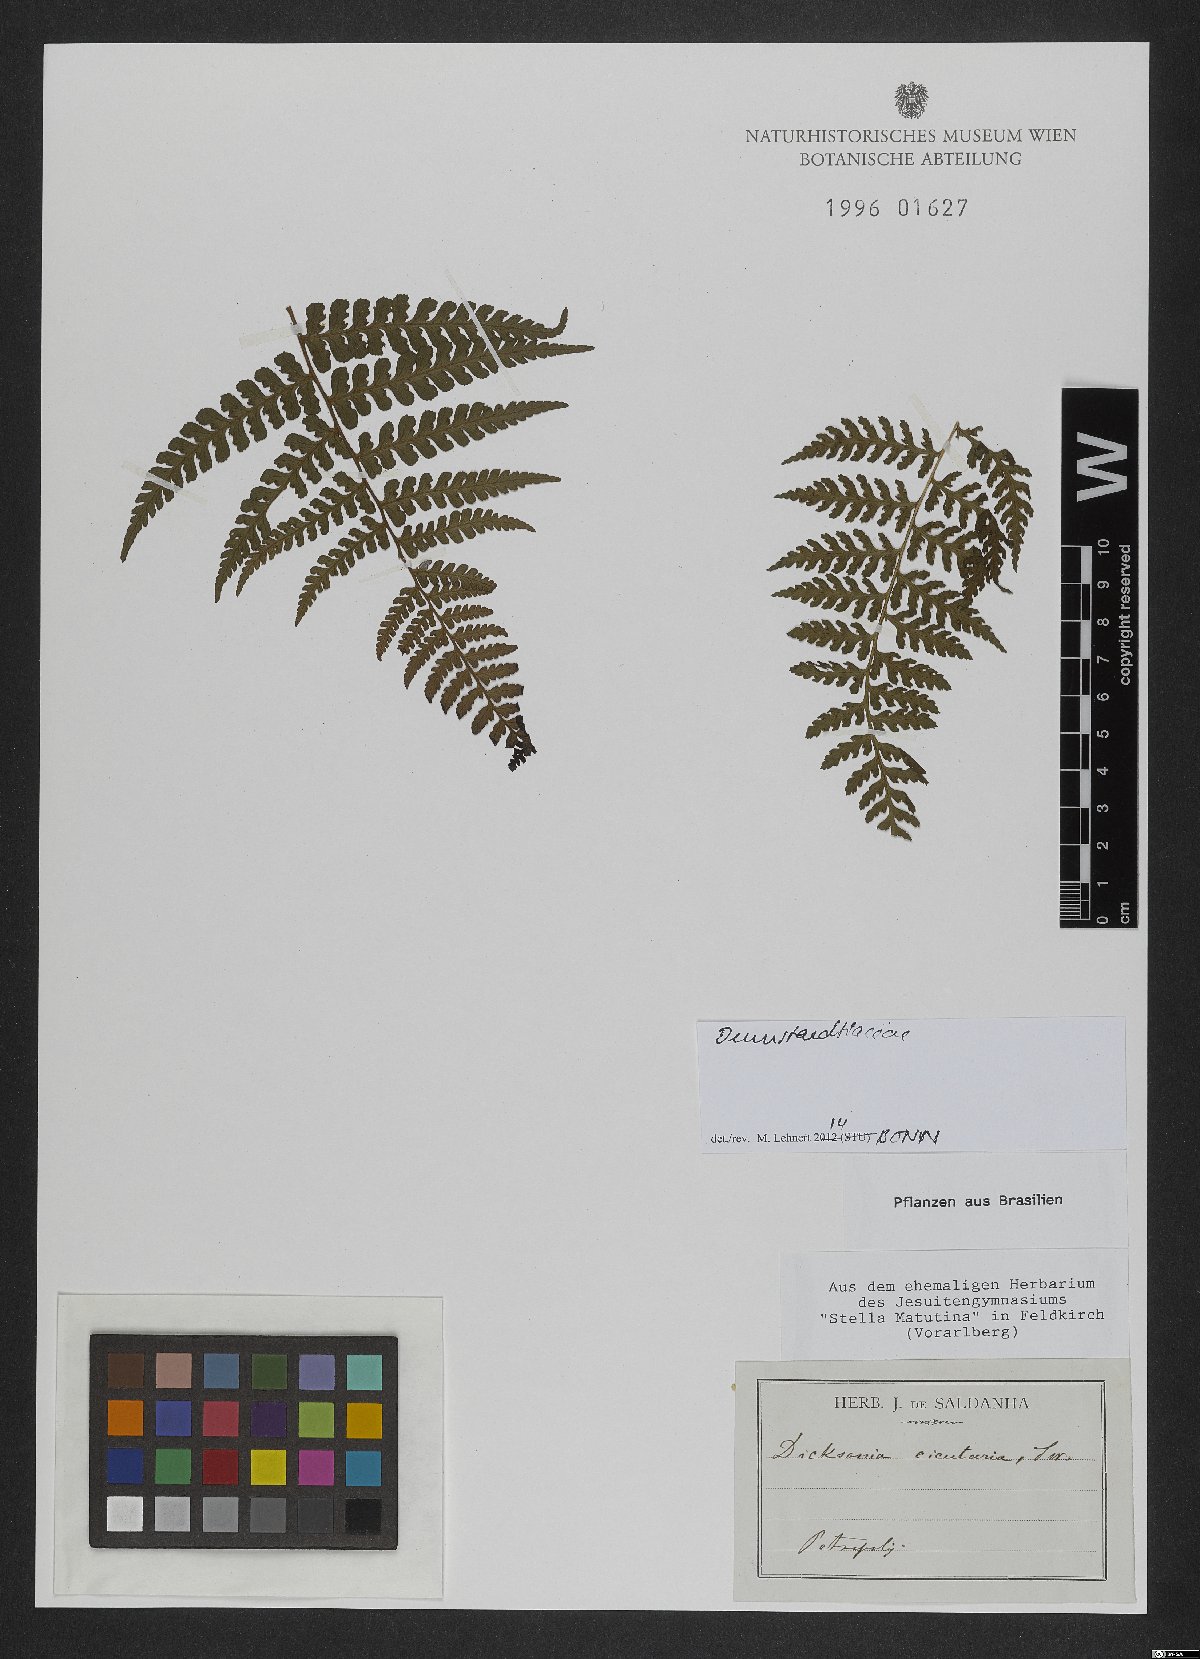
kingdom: Plantae
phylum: Tracheophyta
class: Polypodiopsida
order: Polypodiales
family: Dennstaedtiaceae
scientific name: Dennstaedtiaceae
